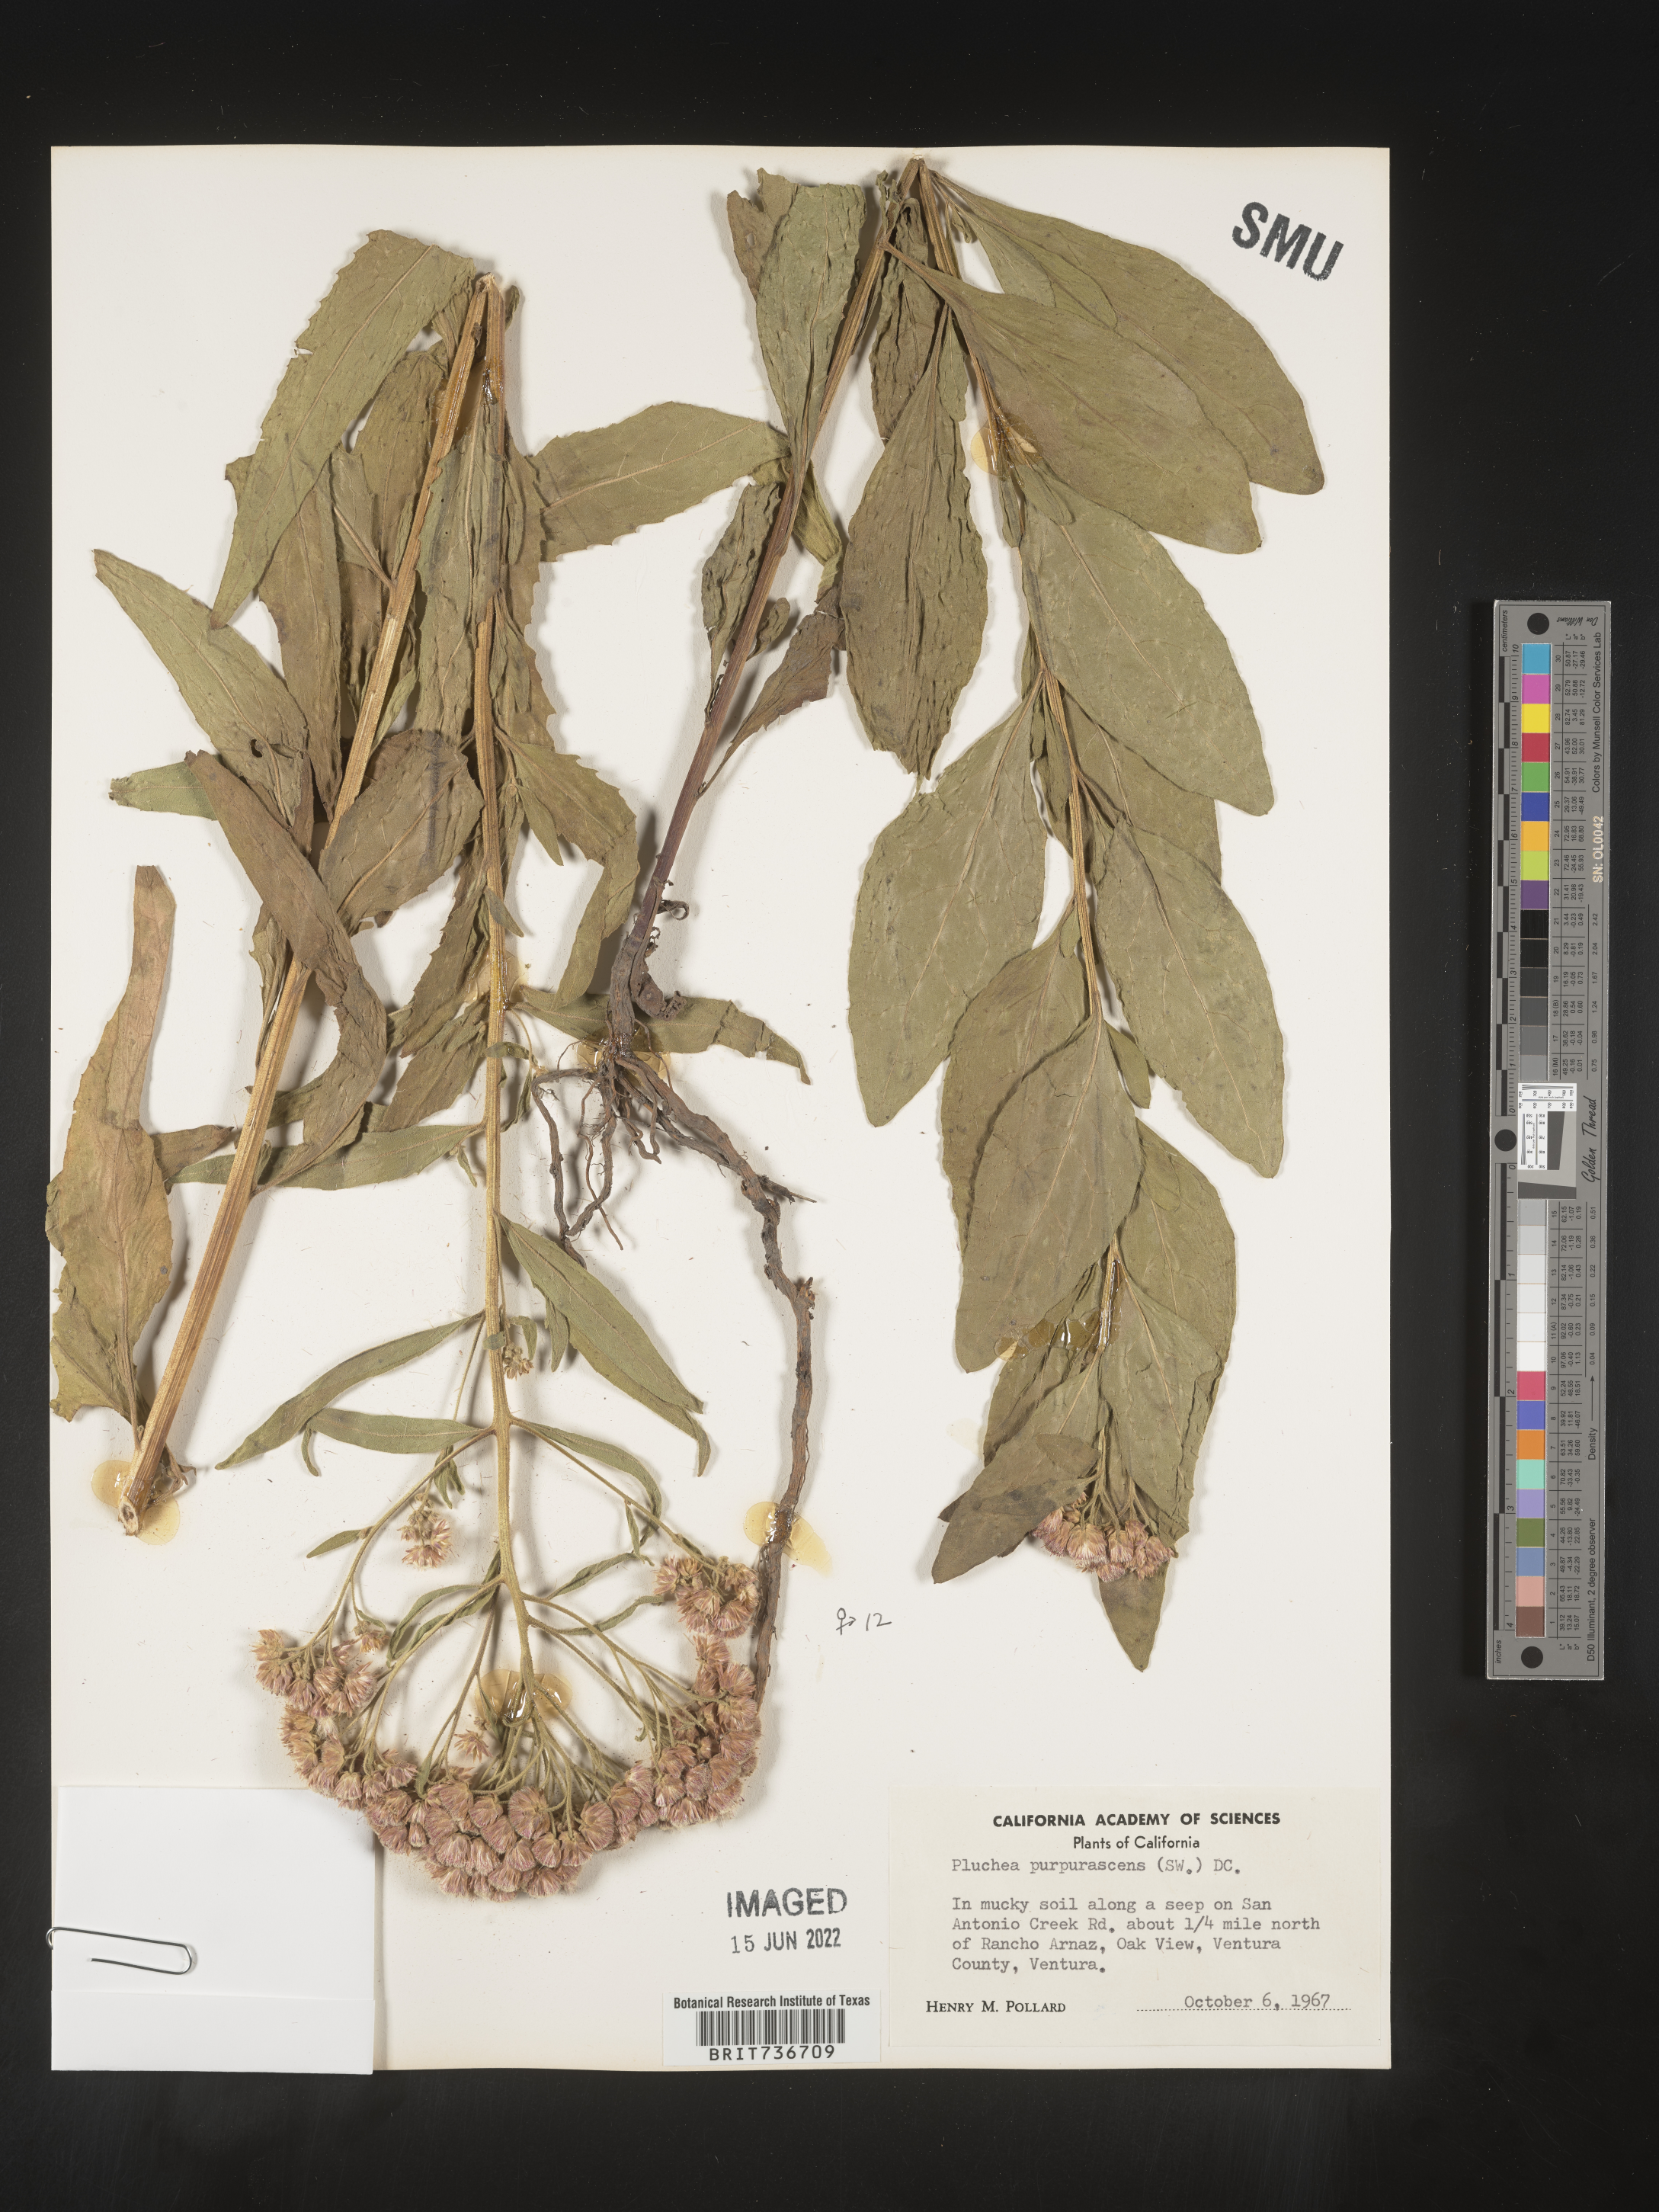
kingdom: Plantae
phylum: Tracheophyta
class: Magnoliopsida
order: Asterales
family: Asteraceae
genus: Pluchea
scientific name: Pluchea odorata
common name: Saltmarsh fleabane
